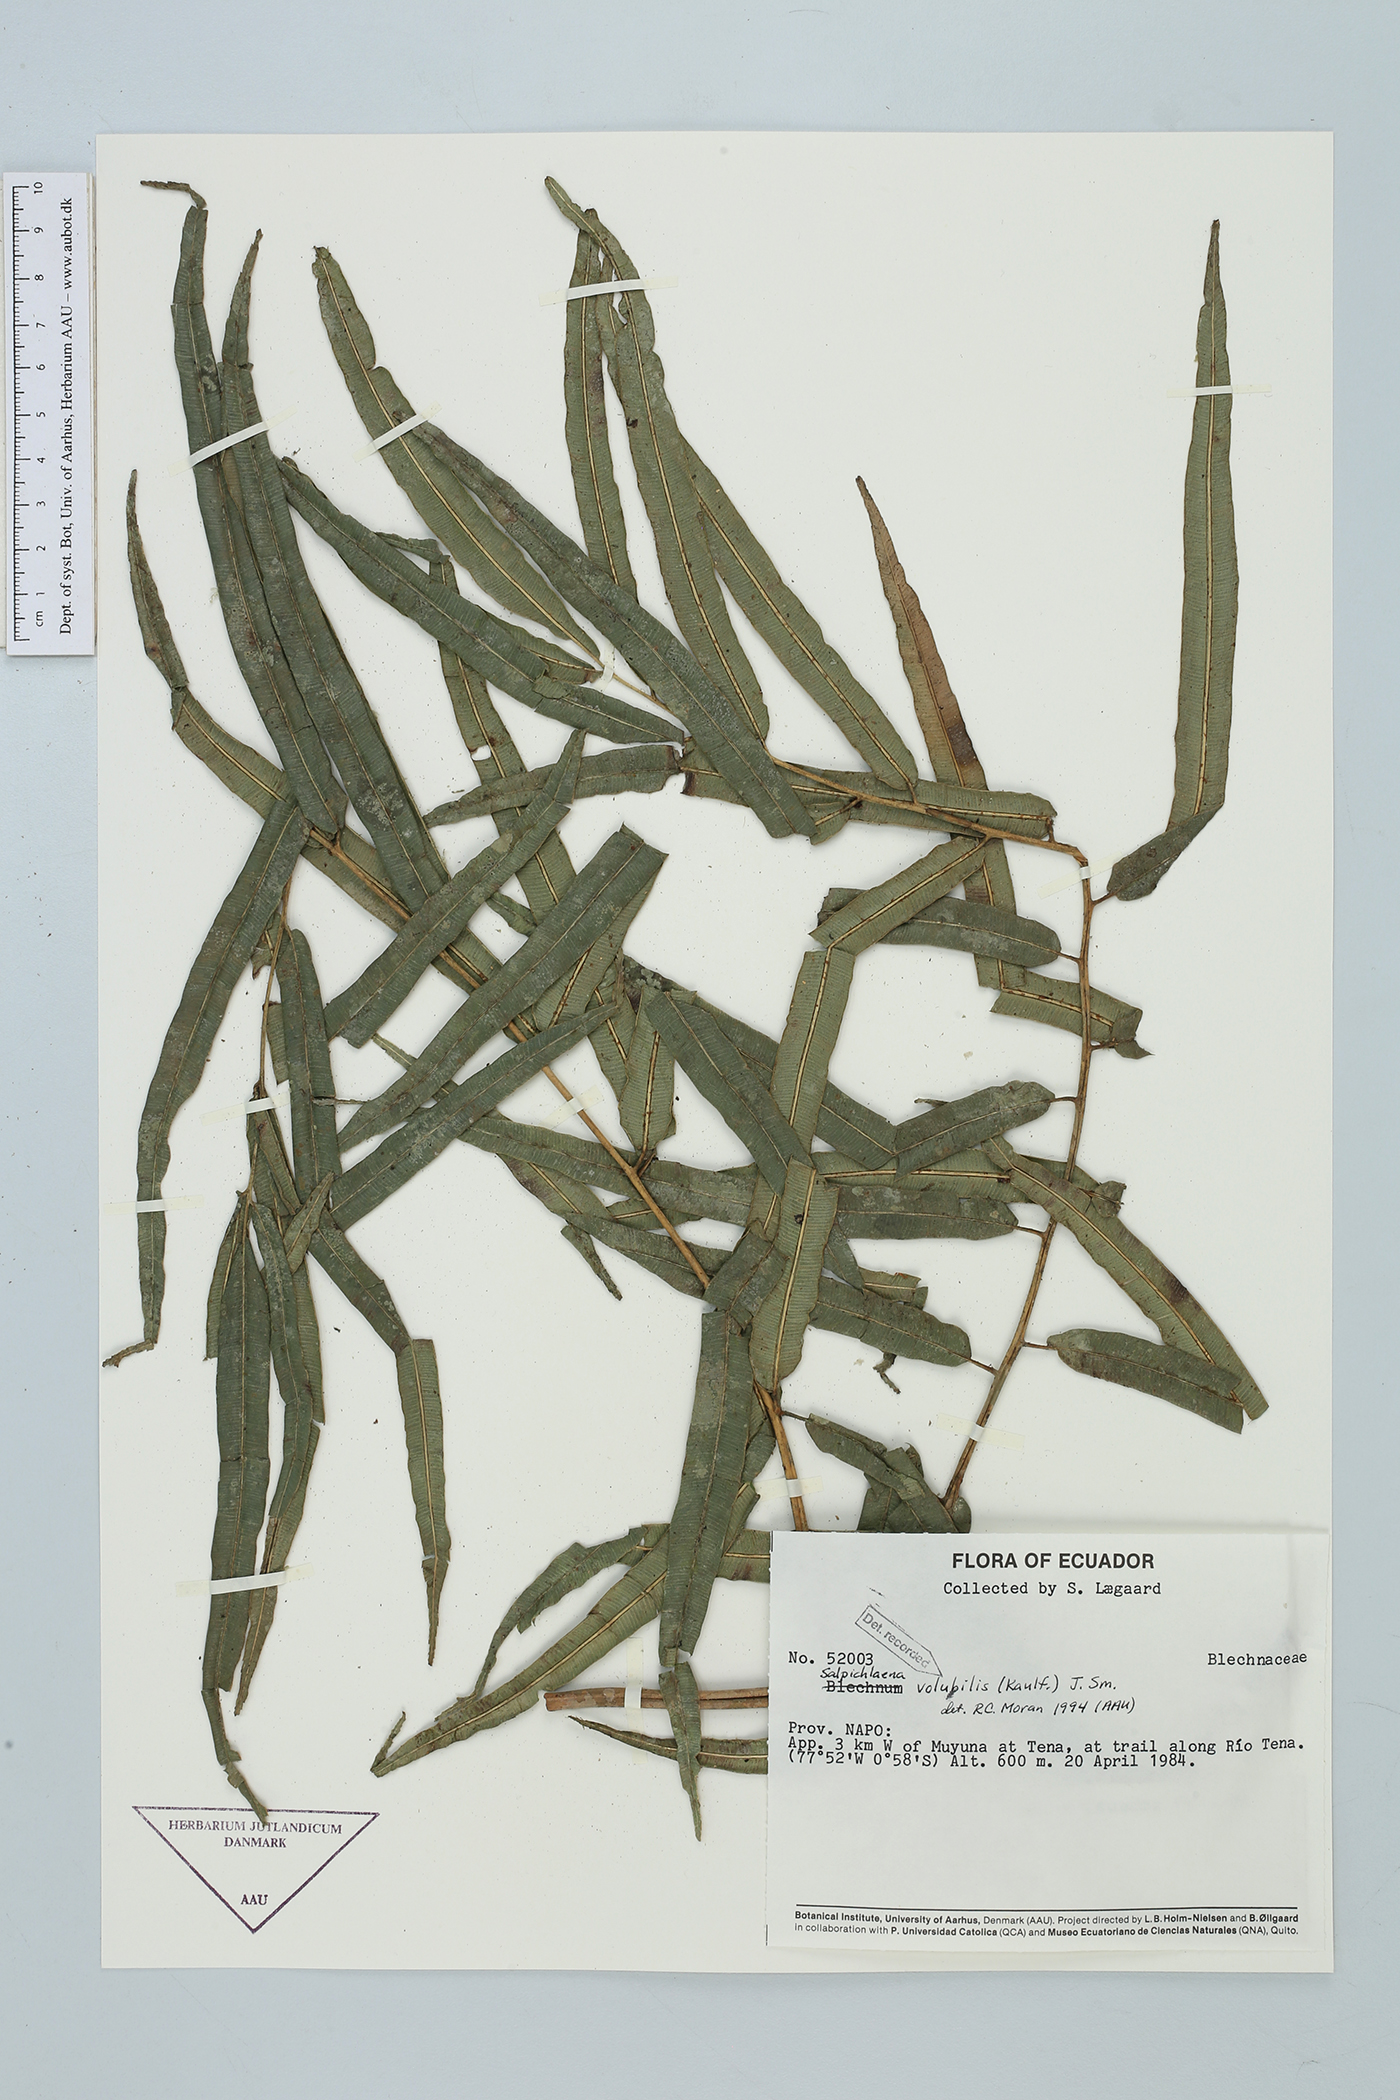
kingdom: Plantae
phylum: Tracheophyta
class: Polypodiopsida
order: Polypodiales
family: Blechnaceae
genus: Salpichlaena
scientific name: Salpichlaena volubilis
